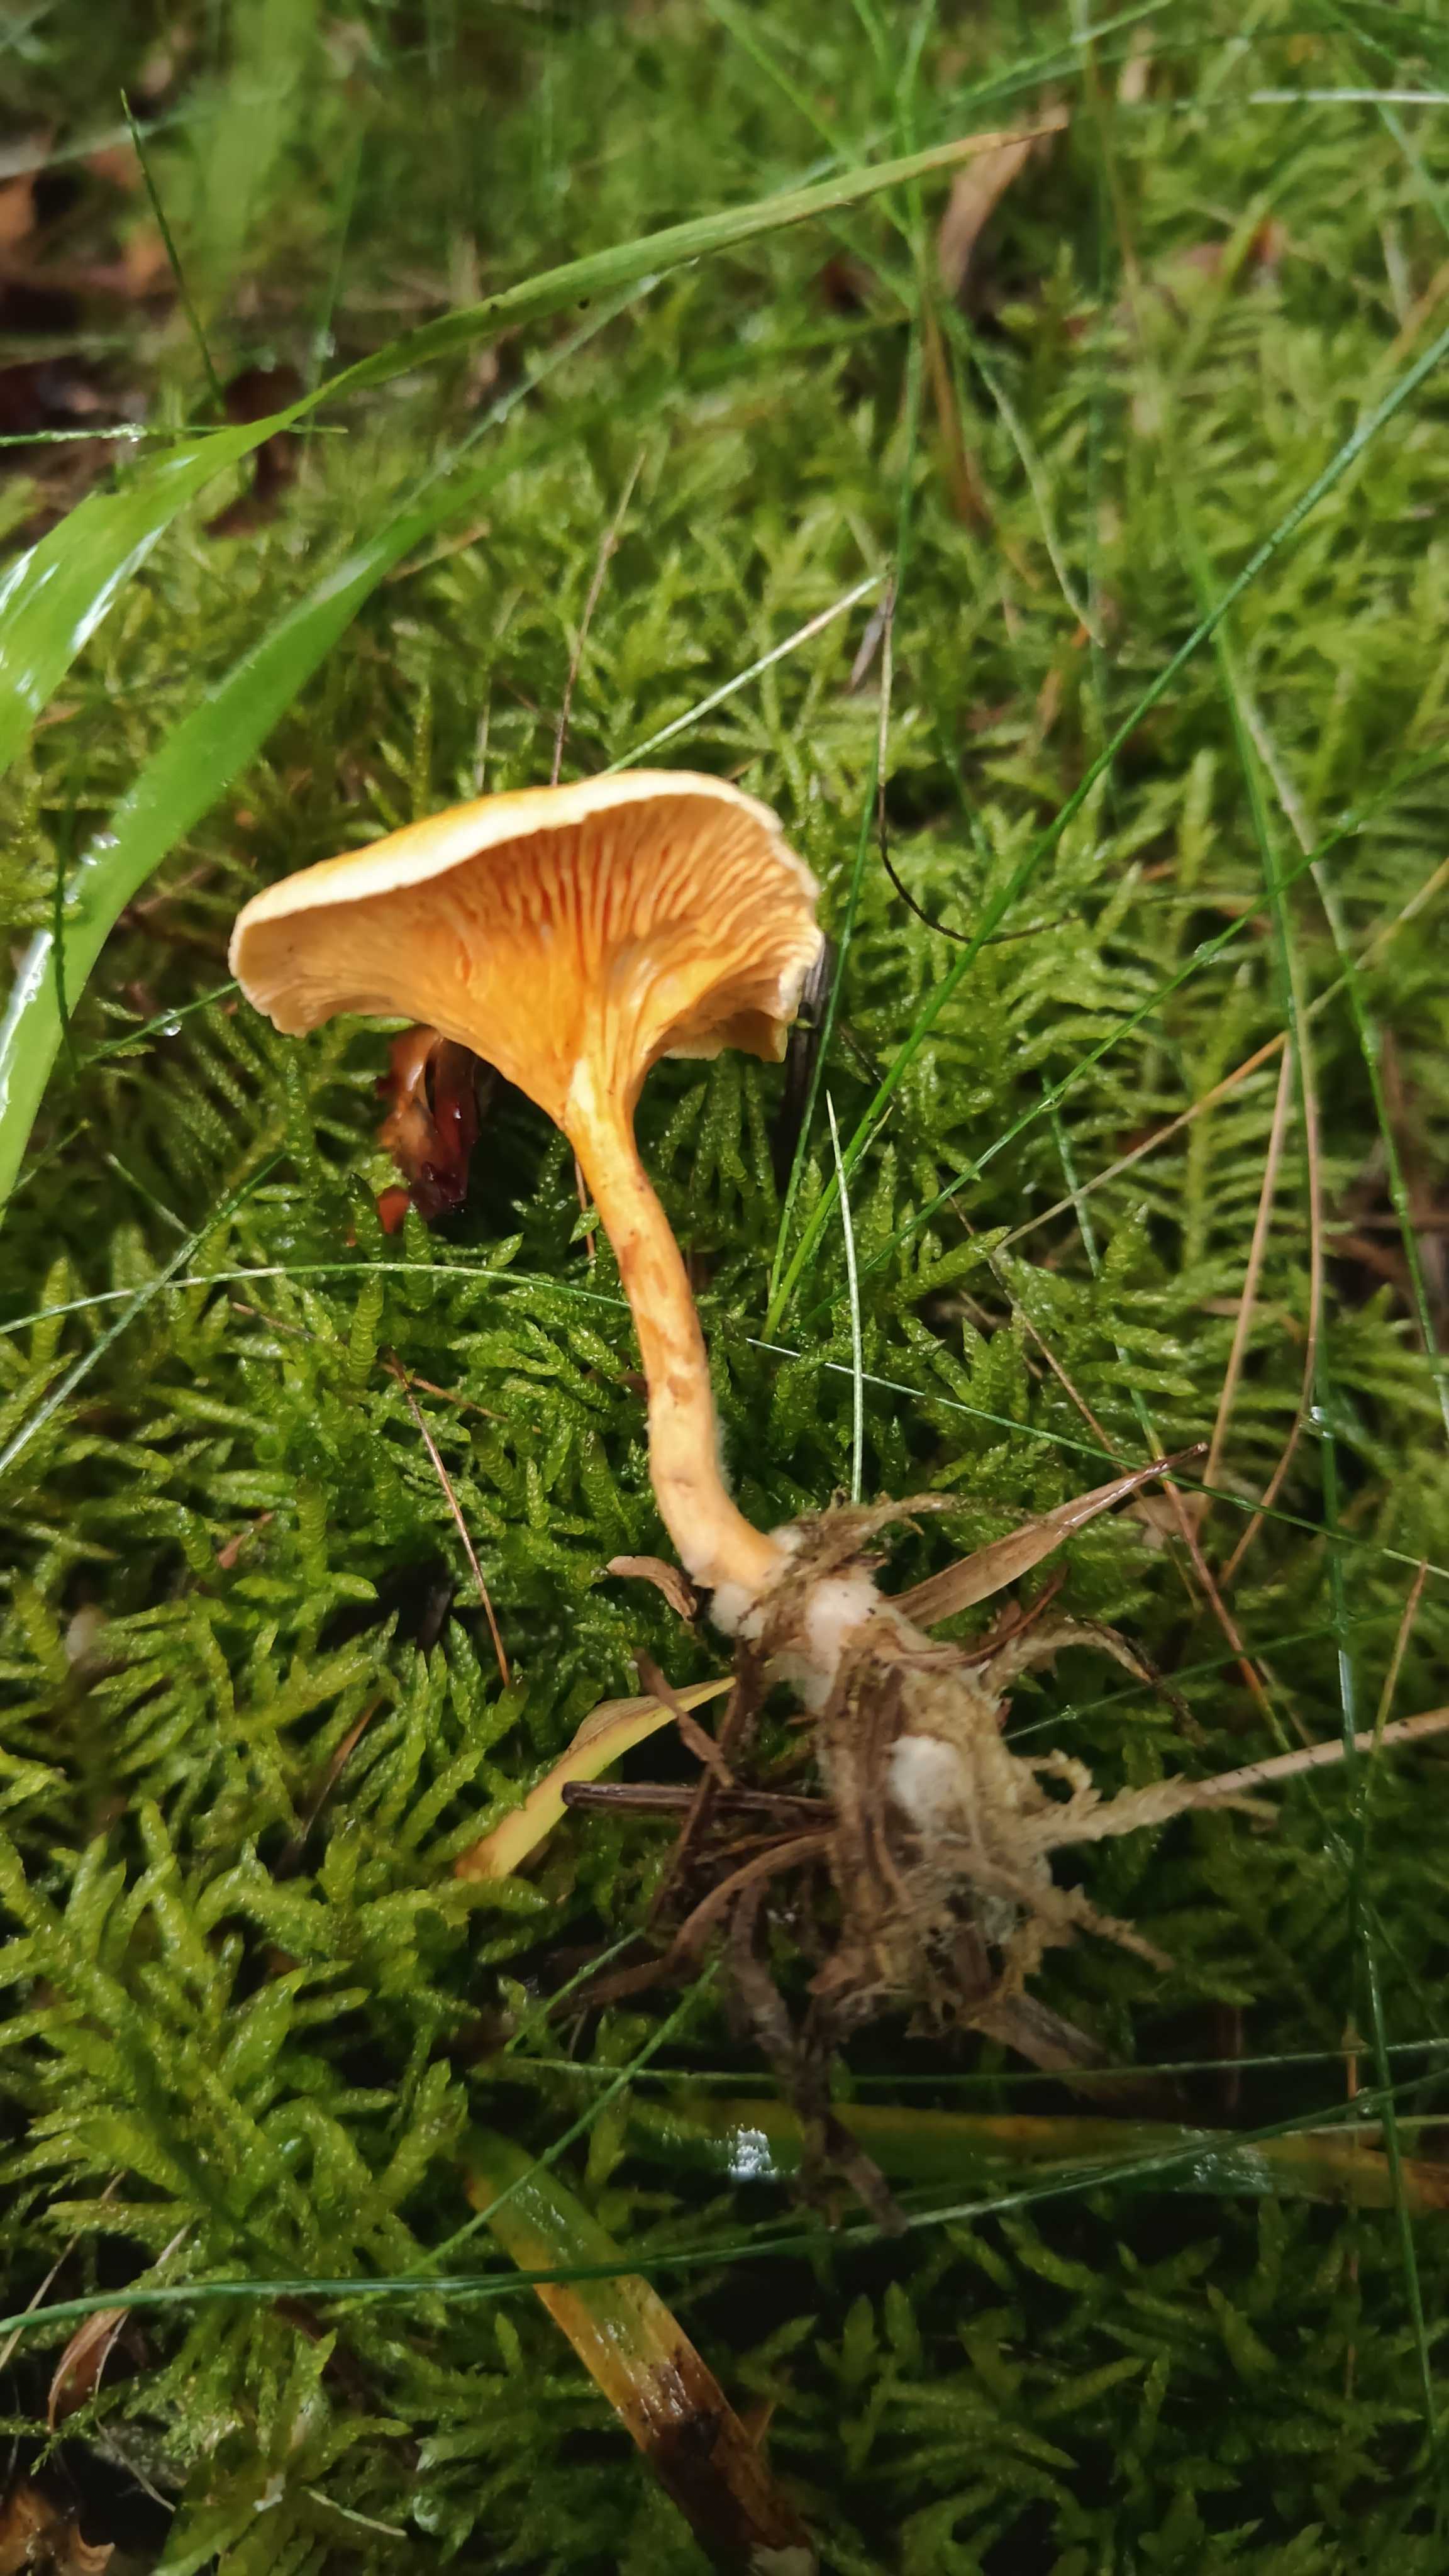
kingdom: Fungi
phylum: Basidiomycota
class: Agaricomycetes
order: Boletales
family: Hygrophoropsidaceae
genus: Hygrophoropsis
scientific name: Hygrophoropsis aurantiaca
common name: almindelig orangekantarel
